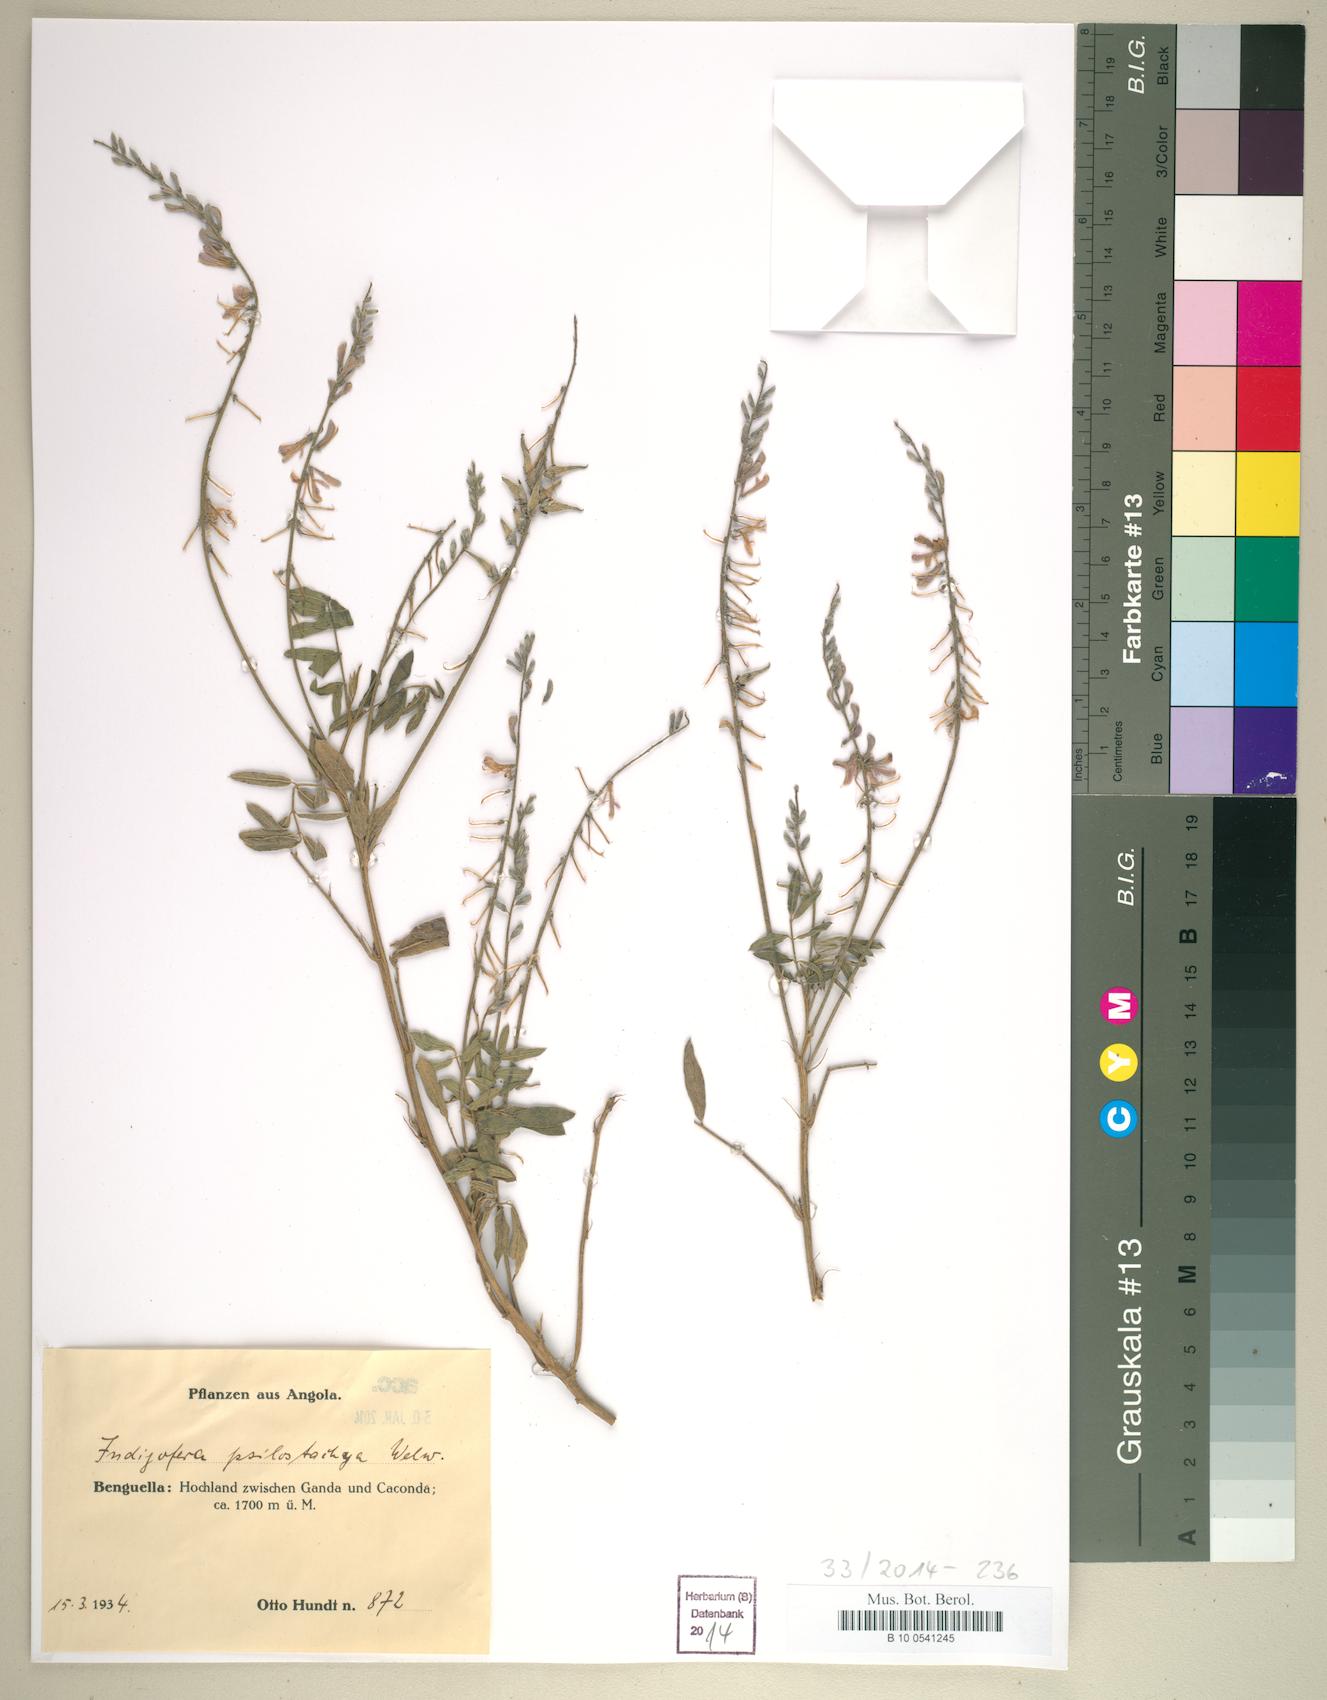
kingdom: Plantae
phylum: Tracheophyta
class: Magnoliopsida
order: Fabales
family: Fabaceae
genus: Indigofera
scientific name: Indigofera lasiantha
